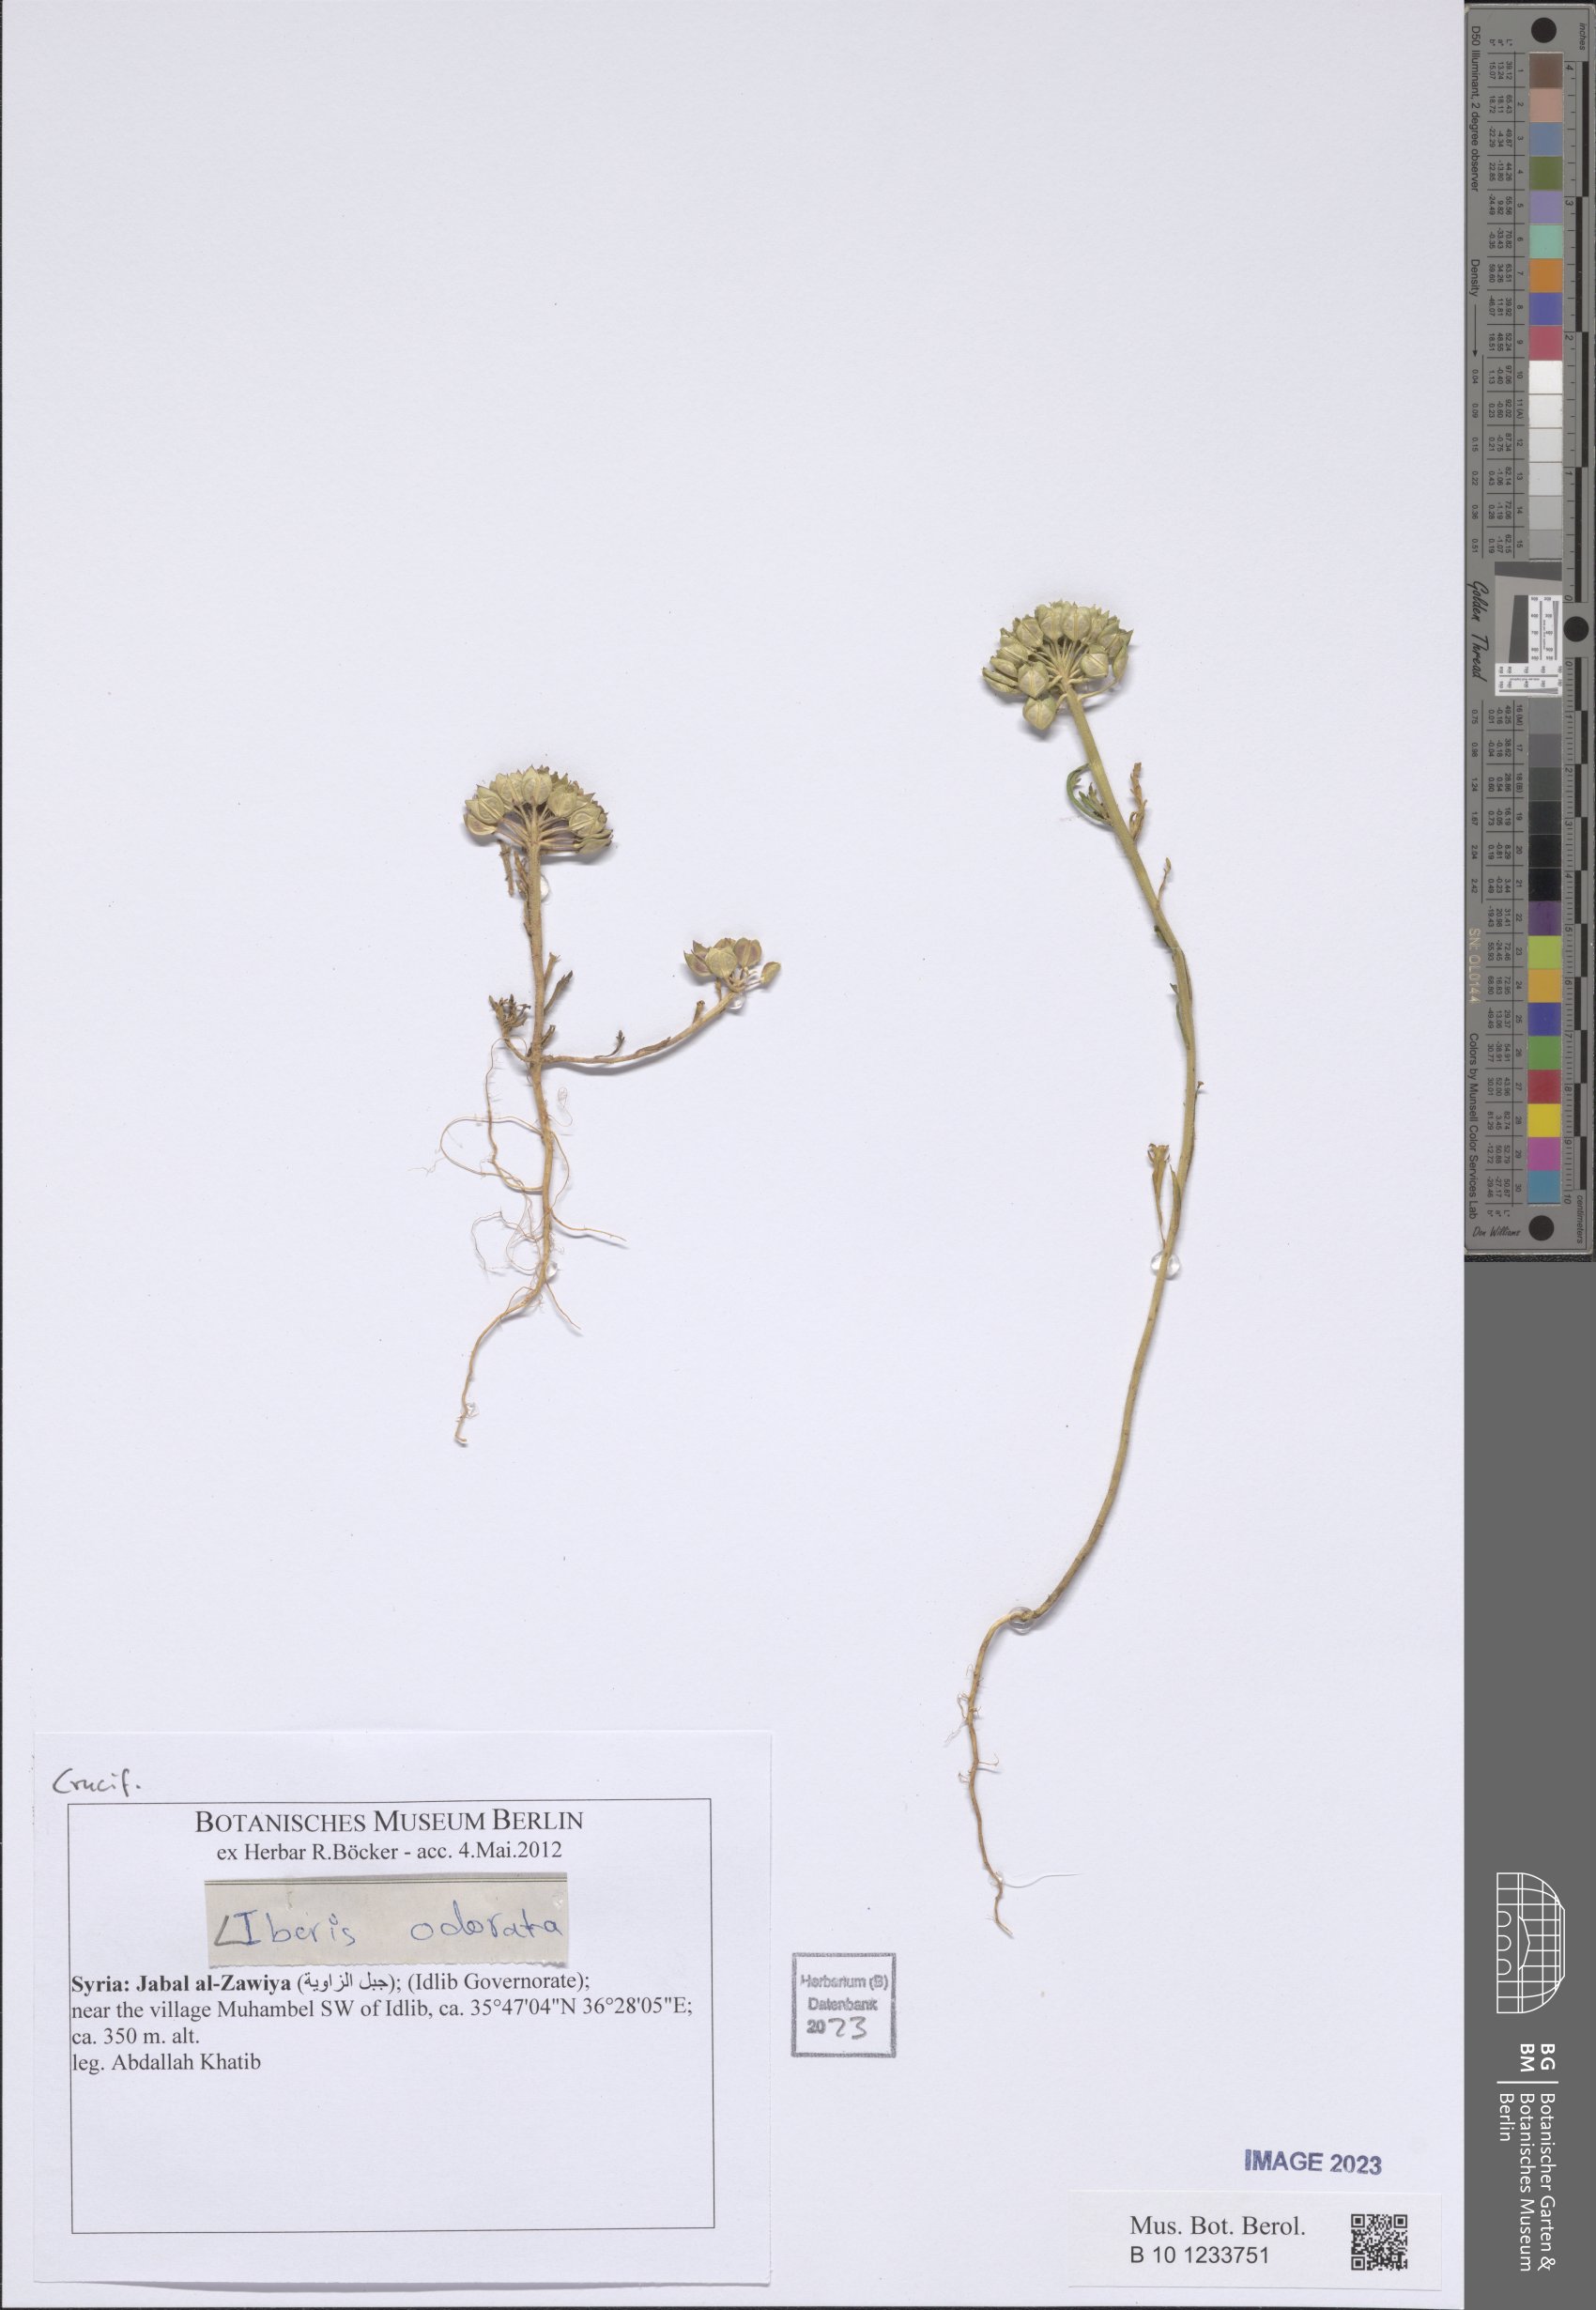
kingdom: Plantae
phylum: Tracheophyta
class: Magnoliopsida
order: Brassicales
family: Brassicaceae
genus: Iberis
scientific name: Iberis odorata
